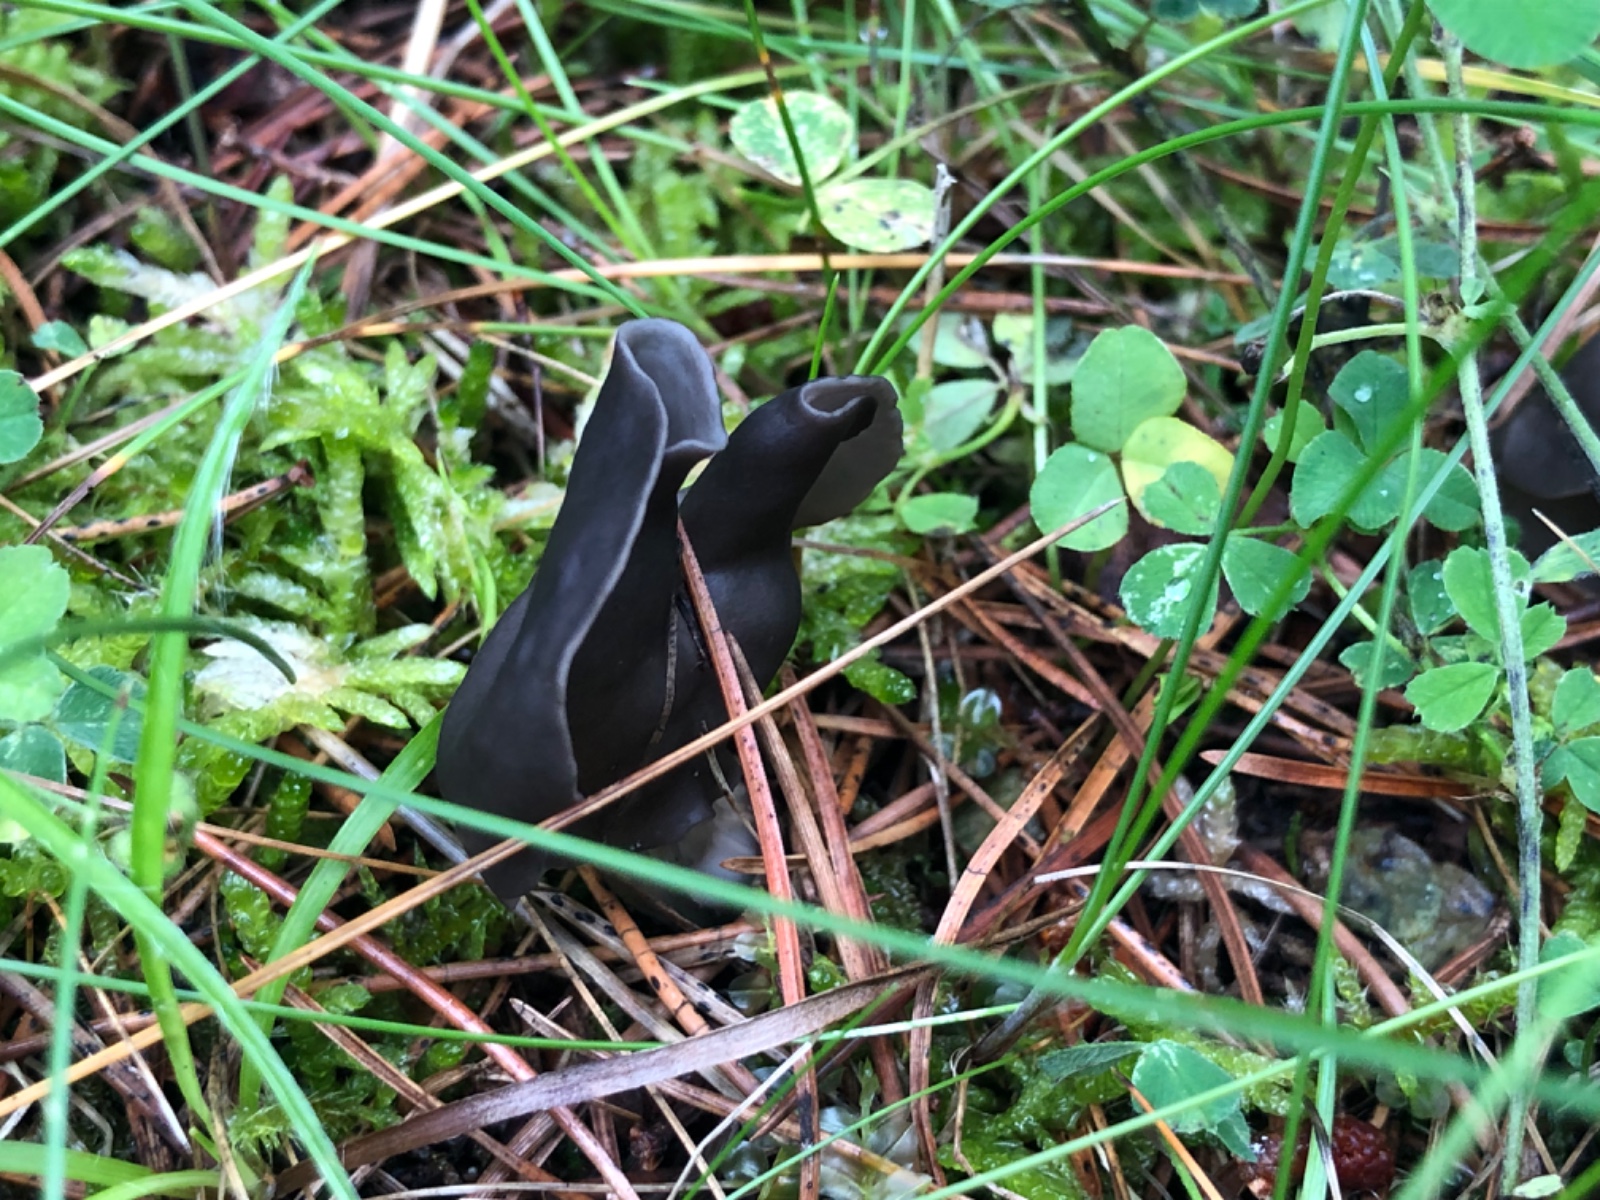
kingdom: Fungi
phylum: Ascomycota
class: Pezizomycetes
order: Pezizales
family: Helvellaceae
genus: Helvella
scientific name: Helvella lacunosa
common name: grubet foldhat
